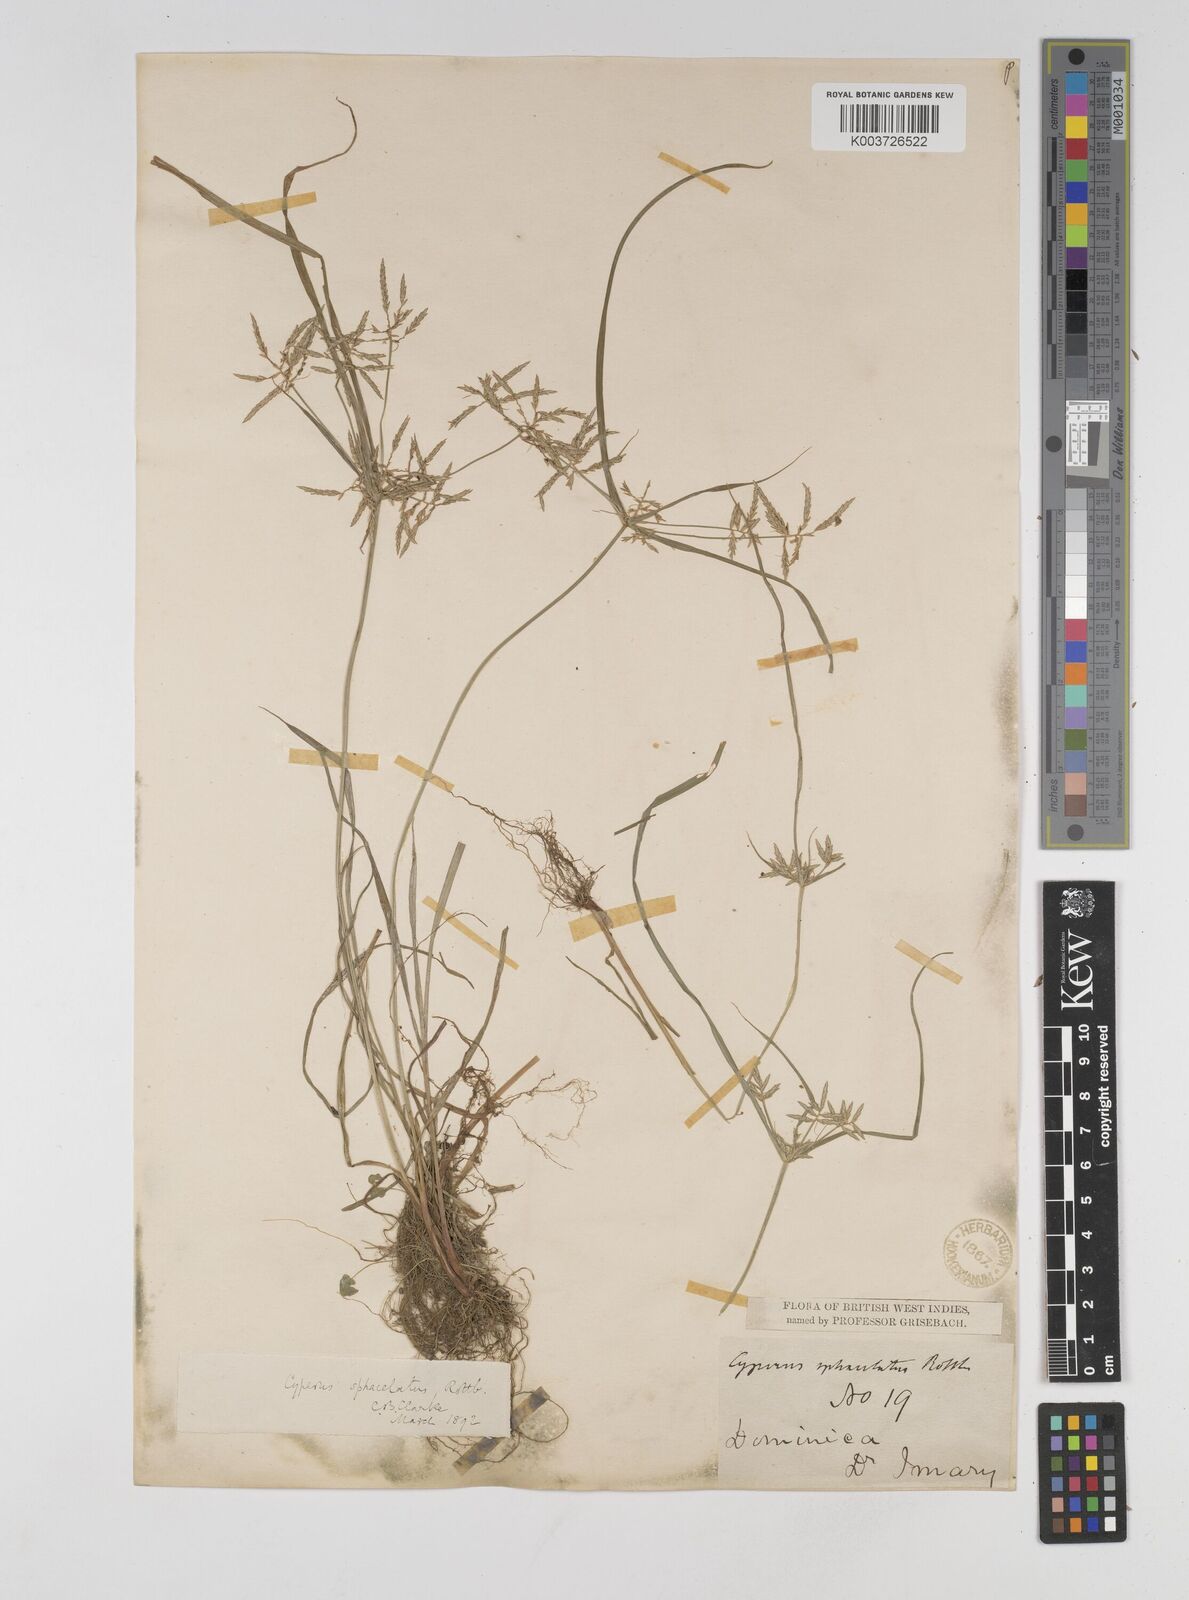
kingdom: Plantae
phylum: Tracheophyta
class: Liliopsida
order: Poales
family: Cyperaceae
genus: Cyperus
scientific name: Cyperus sphacelatus
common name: Roadside flatsedge
